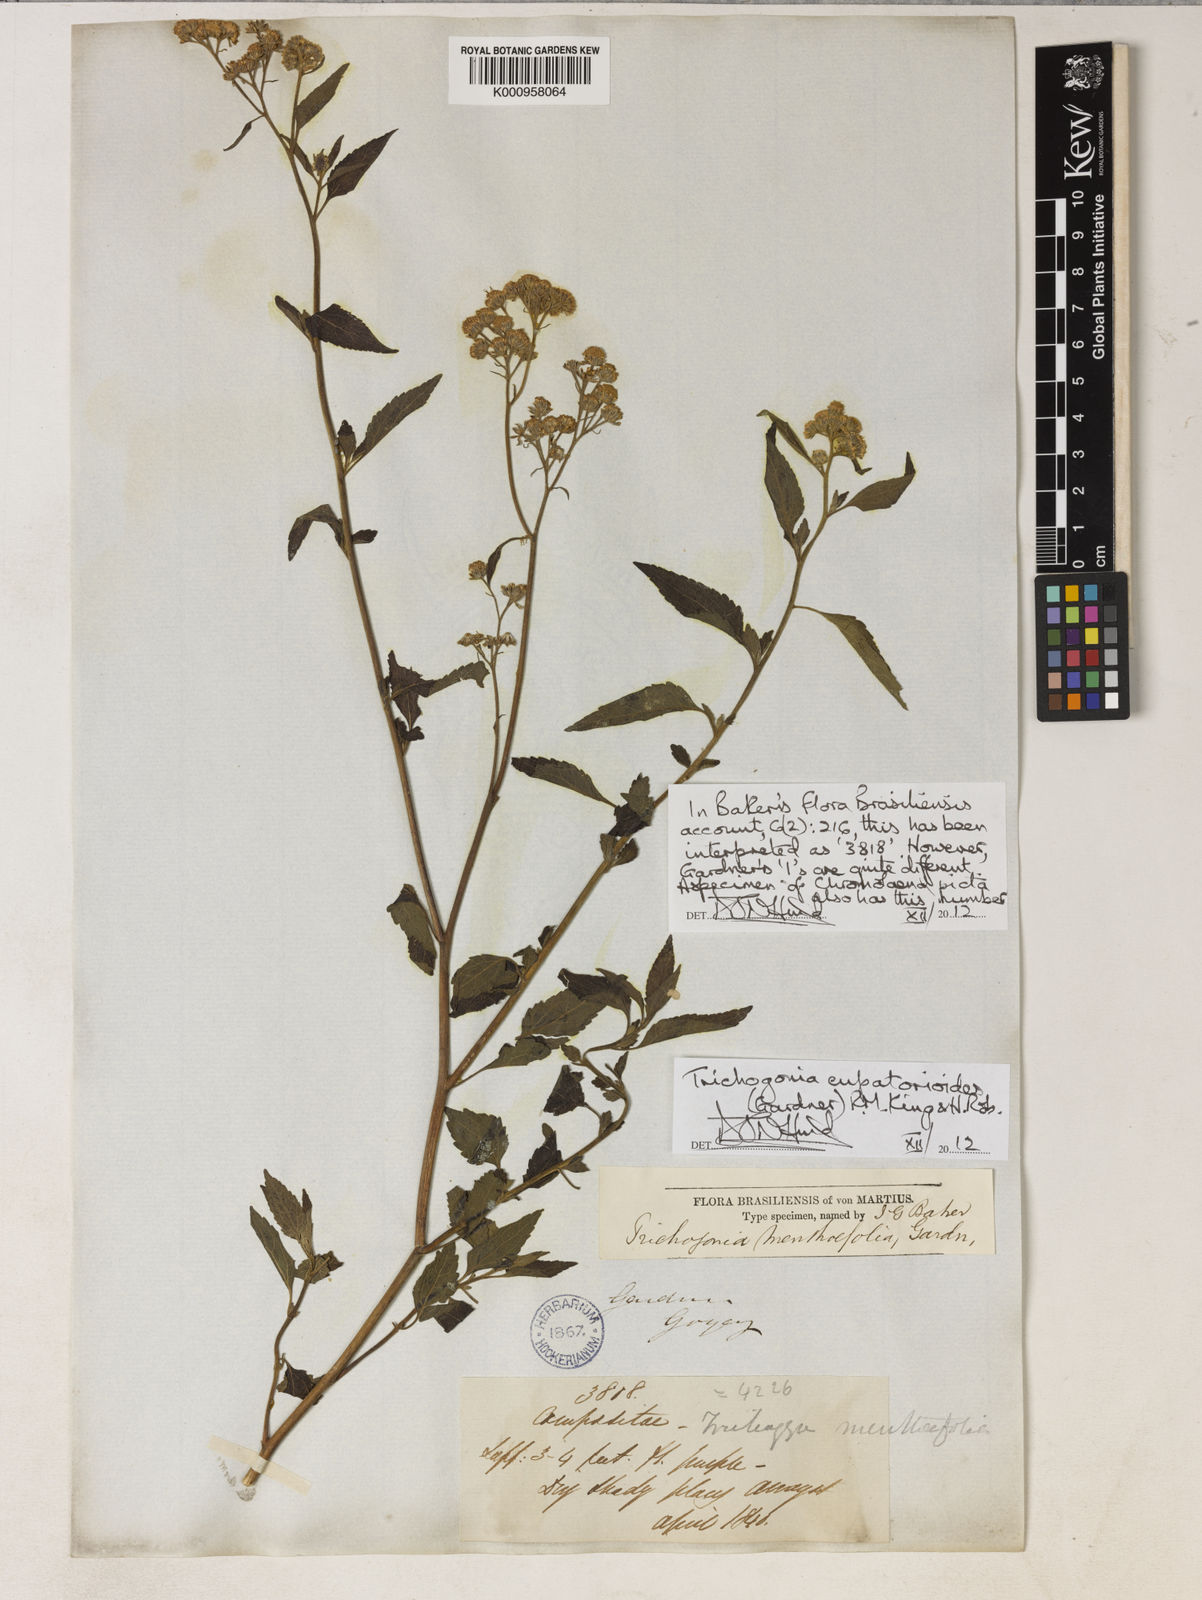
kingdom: Plantae
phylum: Tracheophyta
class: Magnoliopsida
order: Asterales
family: Asteraceae
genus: Trichogonia
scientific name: Trichogonia menthifolia
